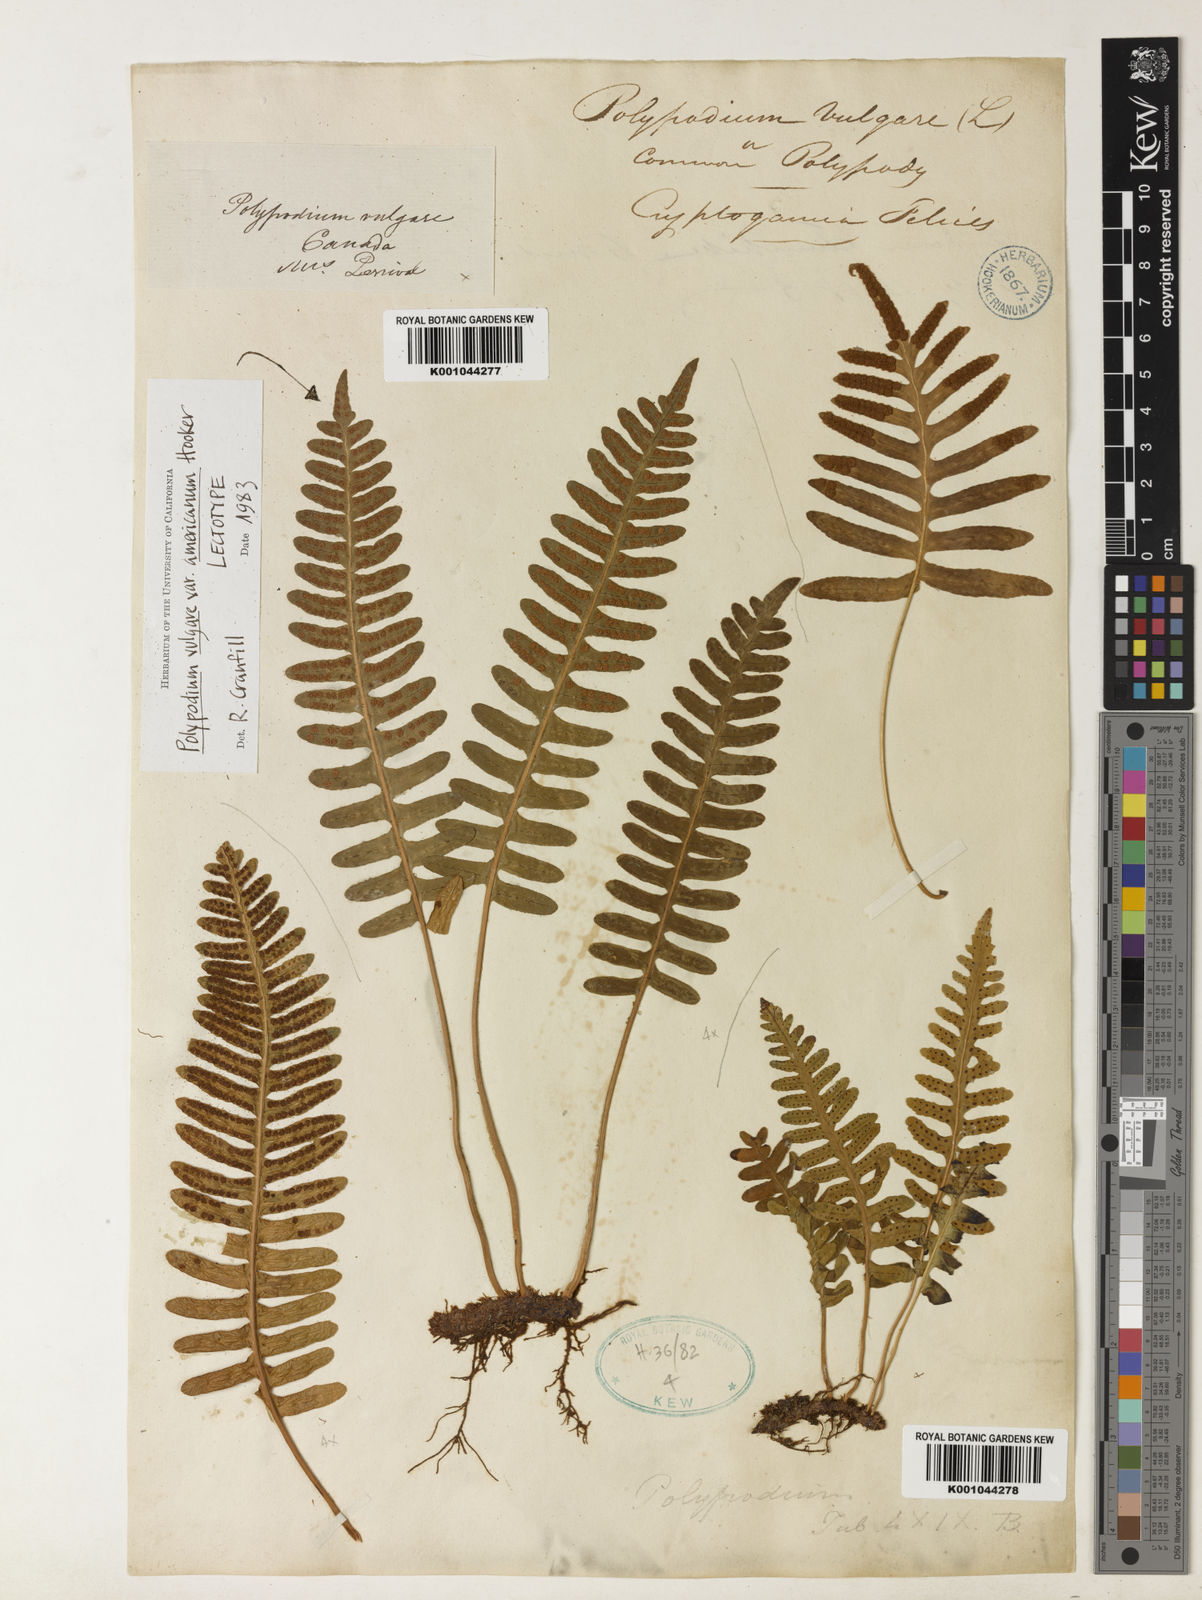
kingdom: Plantae
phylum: Tracheophyta
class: Polypodiopsida
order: Polypodiales
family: Polypodiaceae
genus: Polypodium
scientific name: Polypodium virginianum
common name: American wall fern
